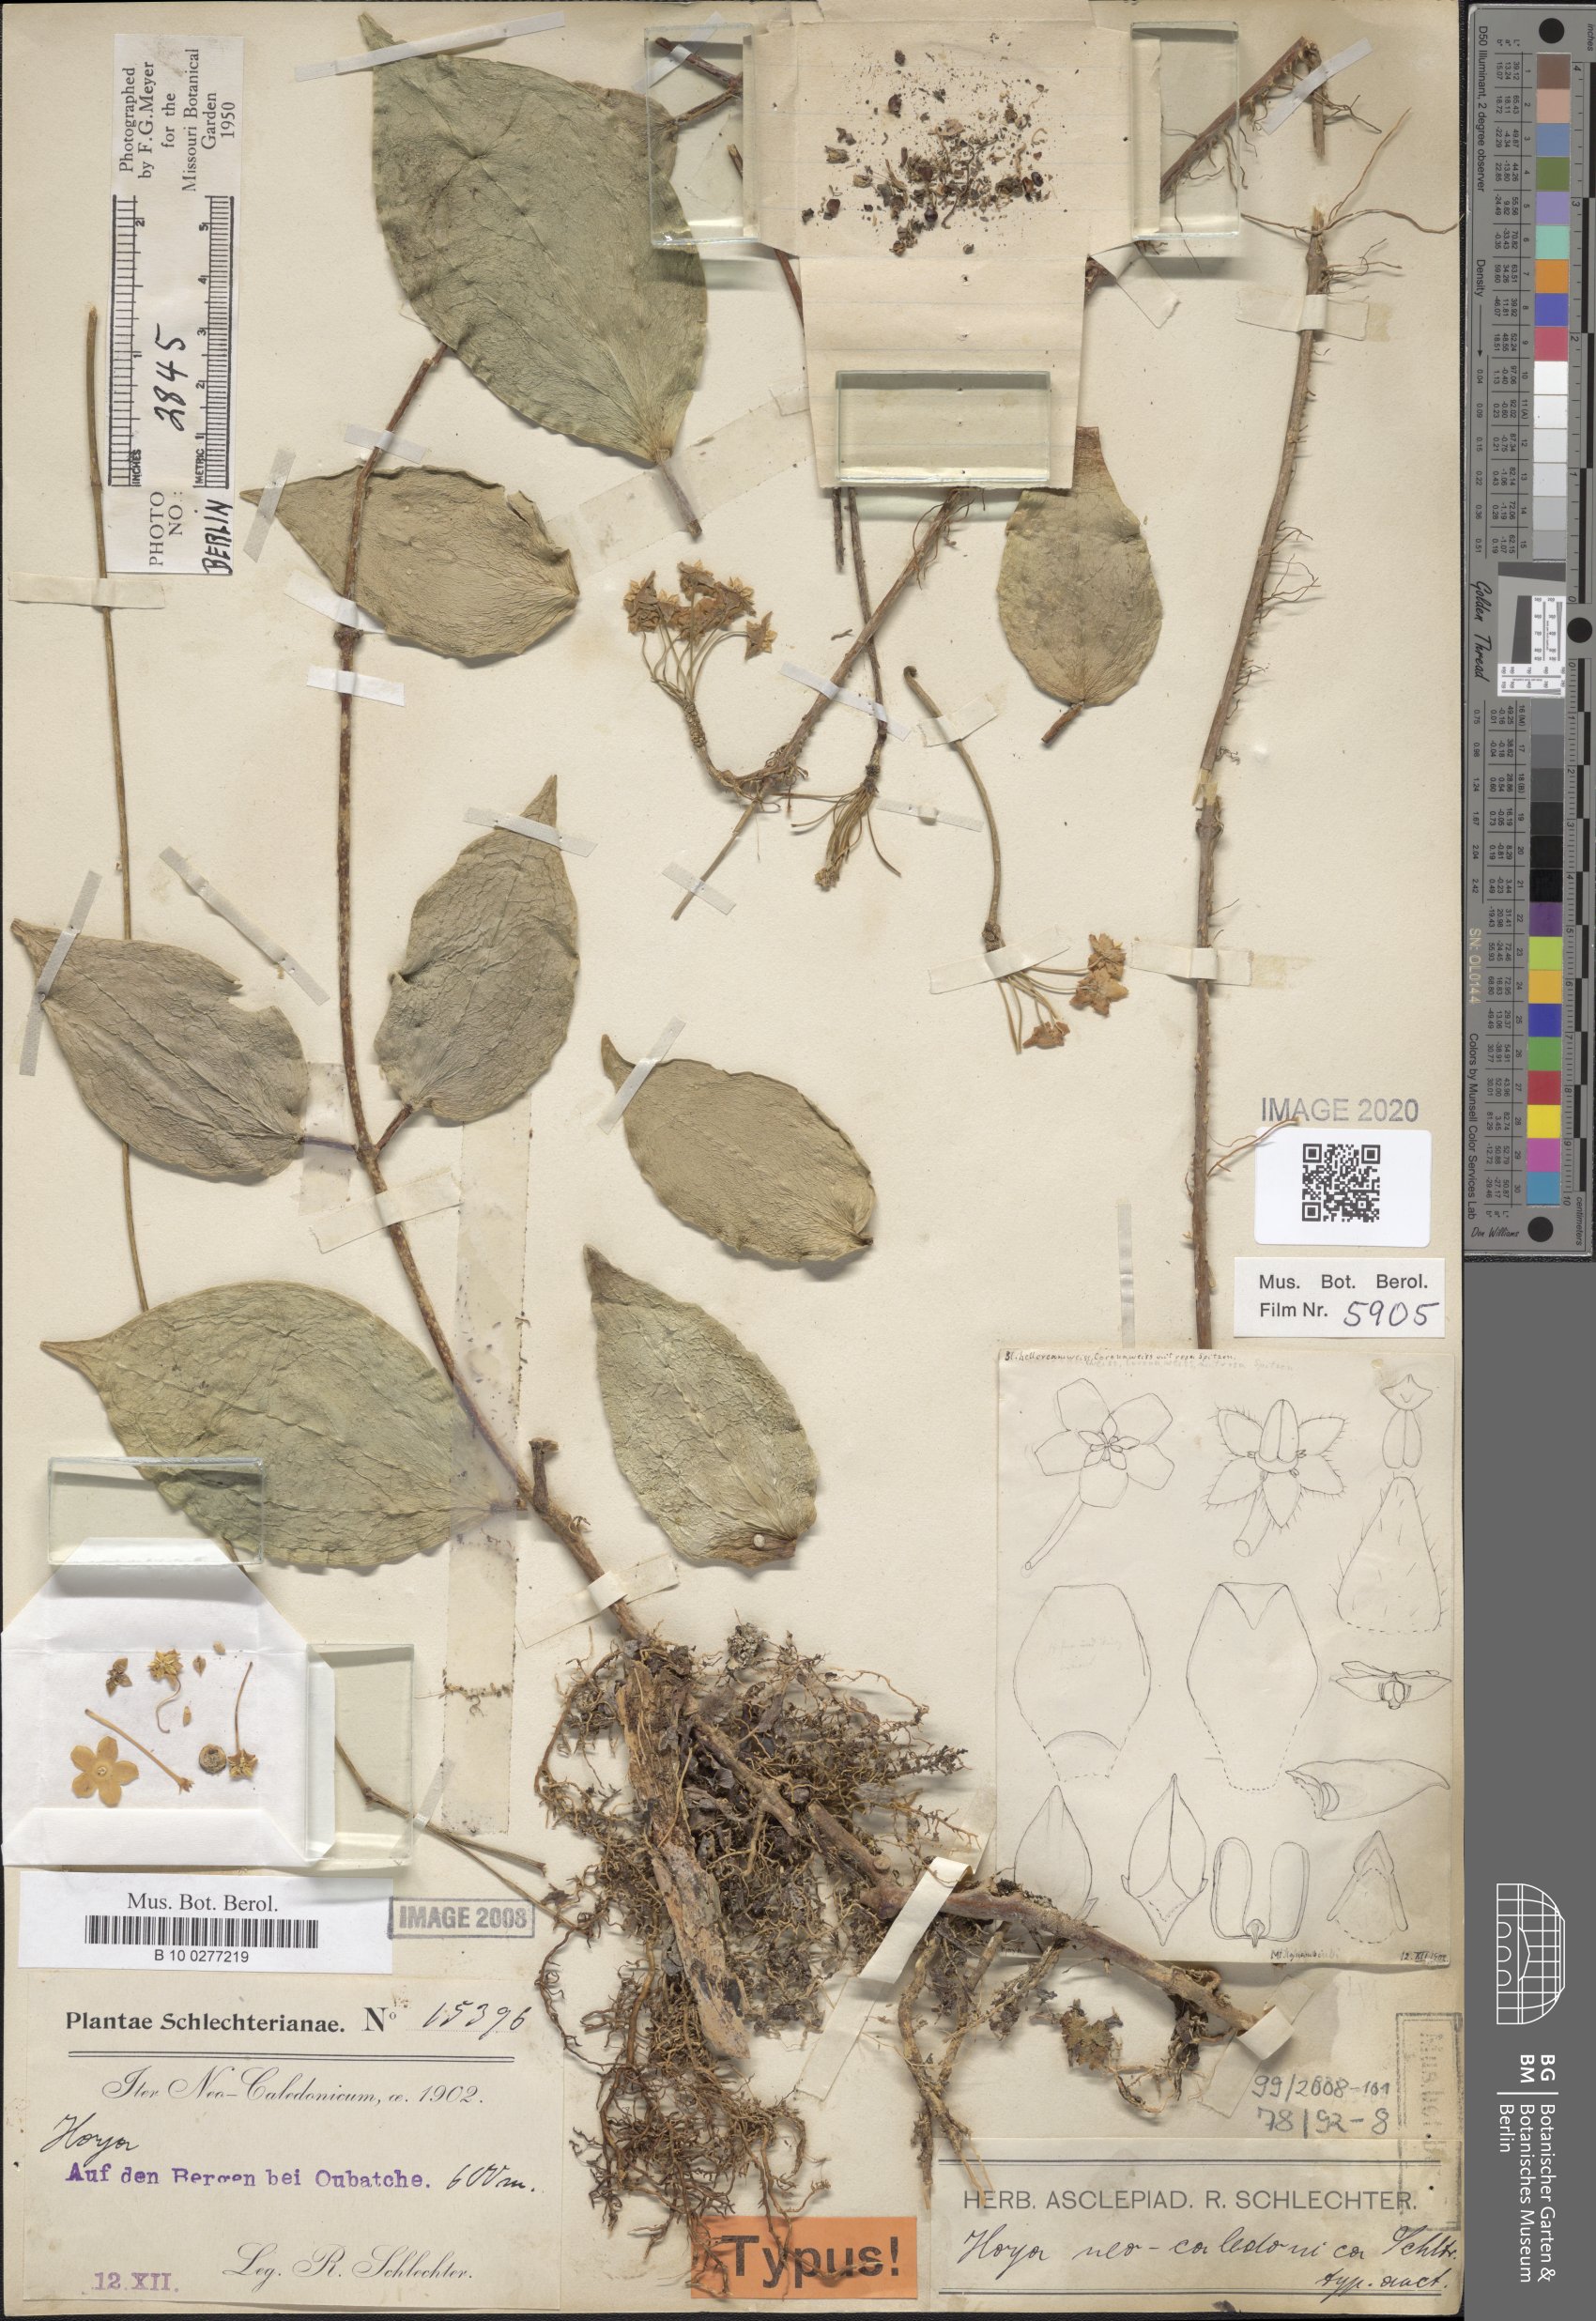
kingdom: Plantae
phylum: Tracheophyta
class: Magnoliopsida
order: Gentianales
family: Apocynaceae
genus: Hoya
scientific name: Hoya nicholsoniae
